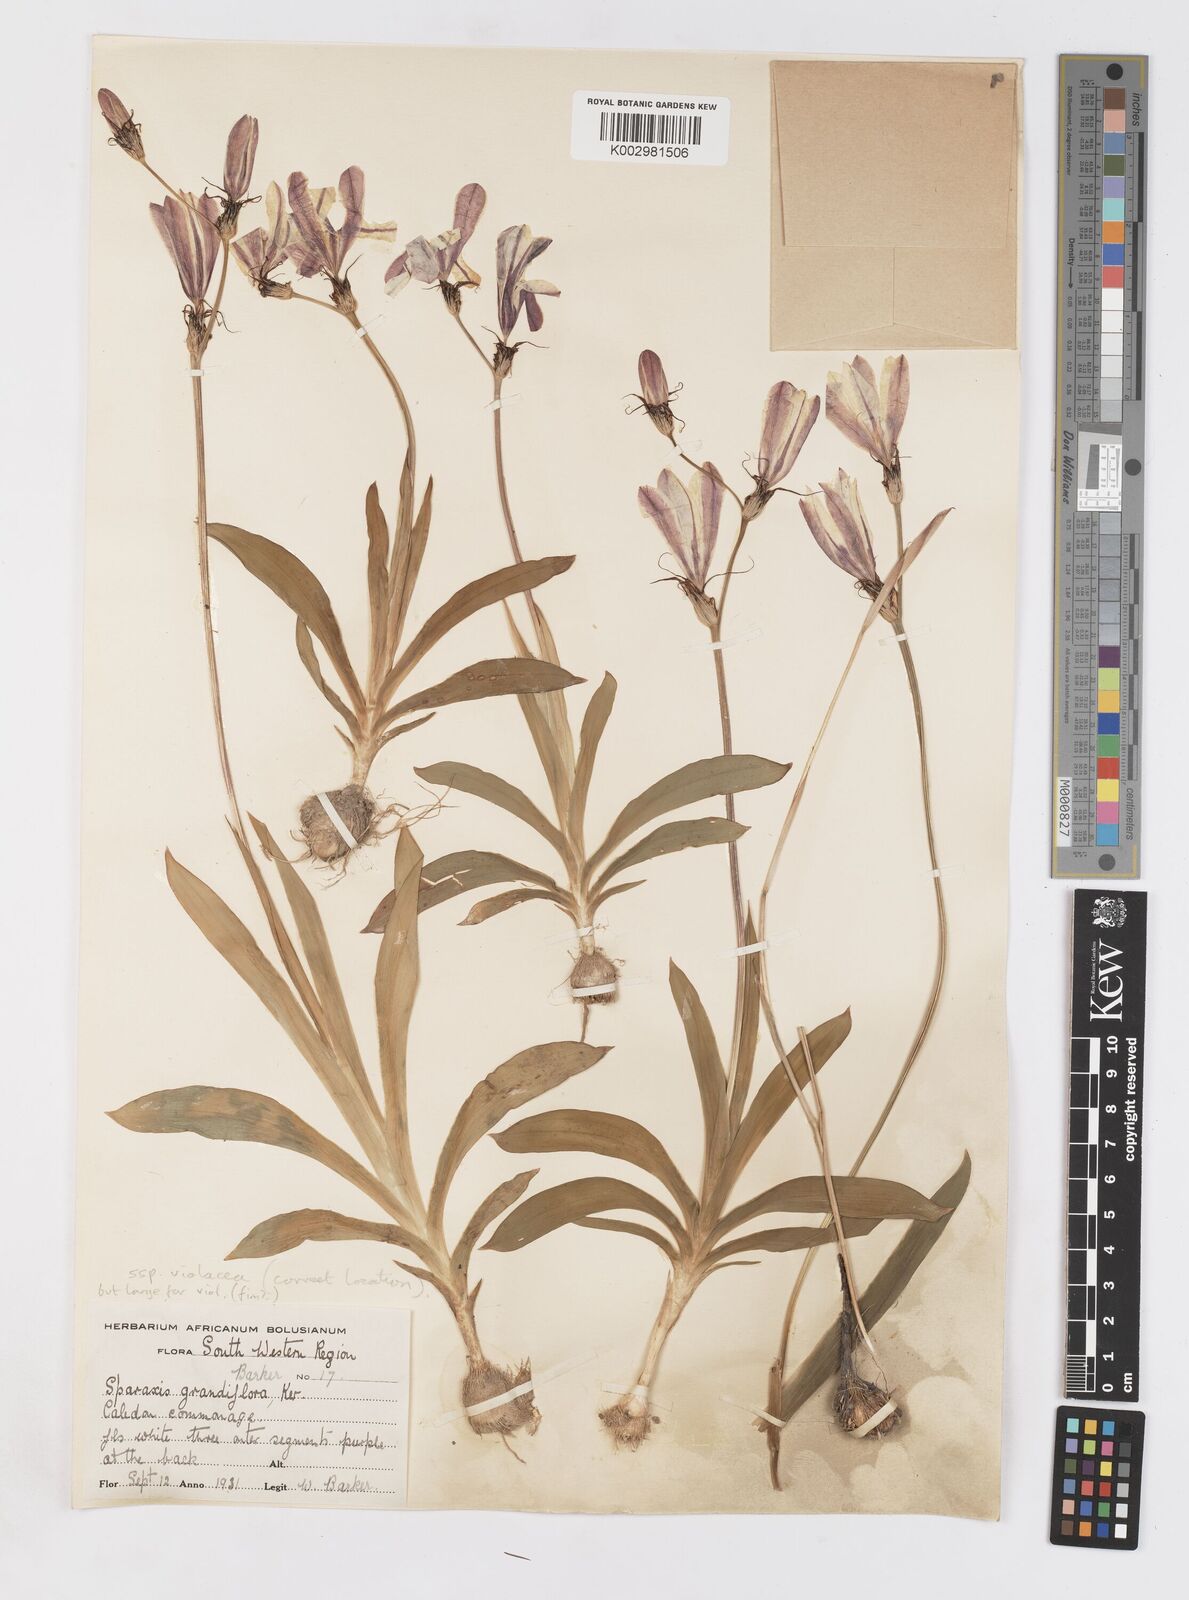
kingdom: Plantae
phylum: Tracheophyta
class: Liliopsida
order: Asparagales
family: Iridaceae
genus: Sparaxis
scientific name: Sparaxis grandiflora
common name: Plain harlequin-flower
